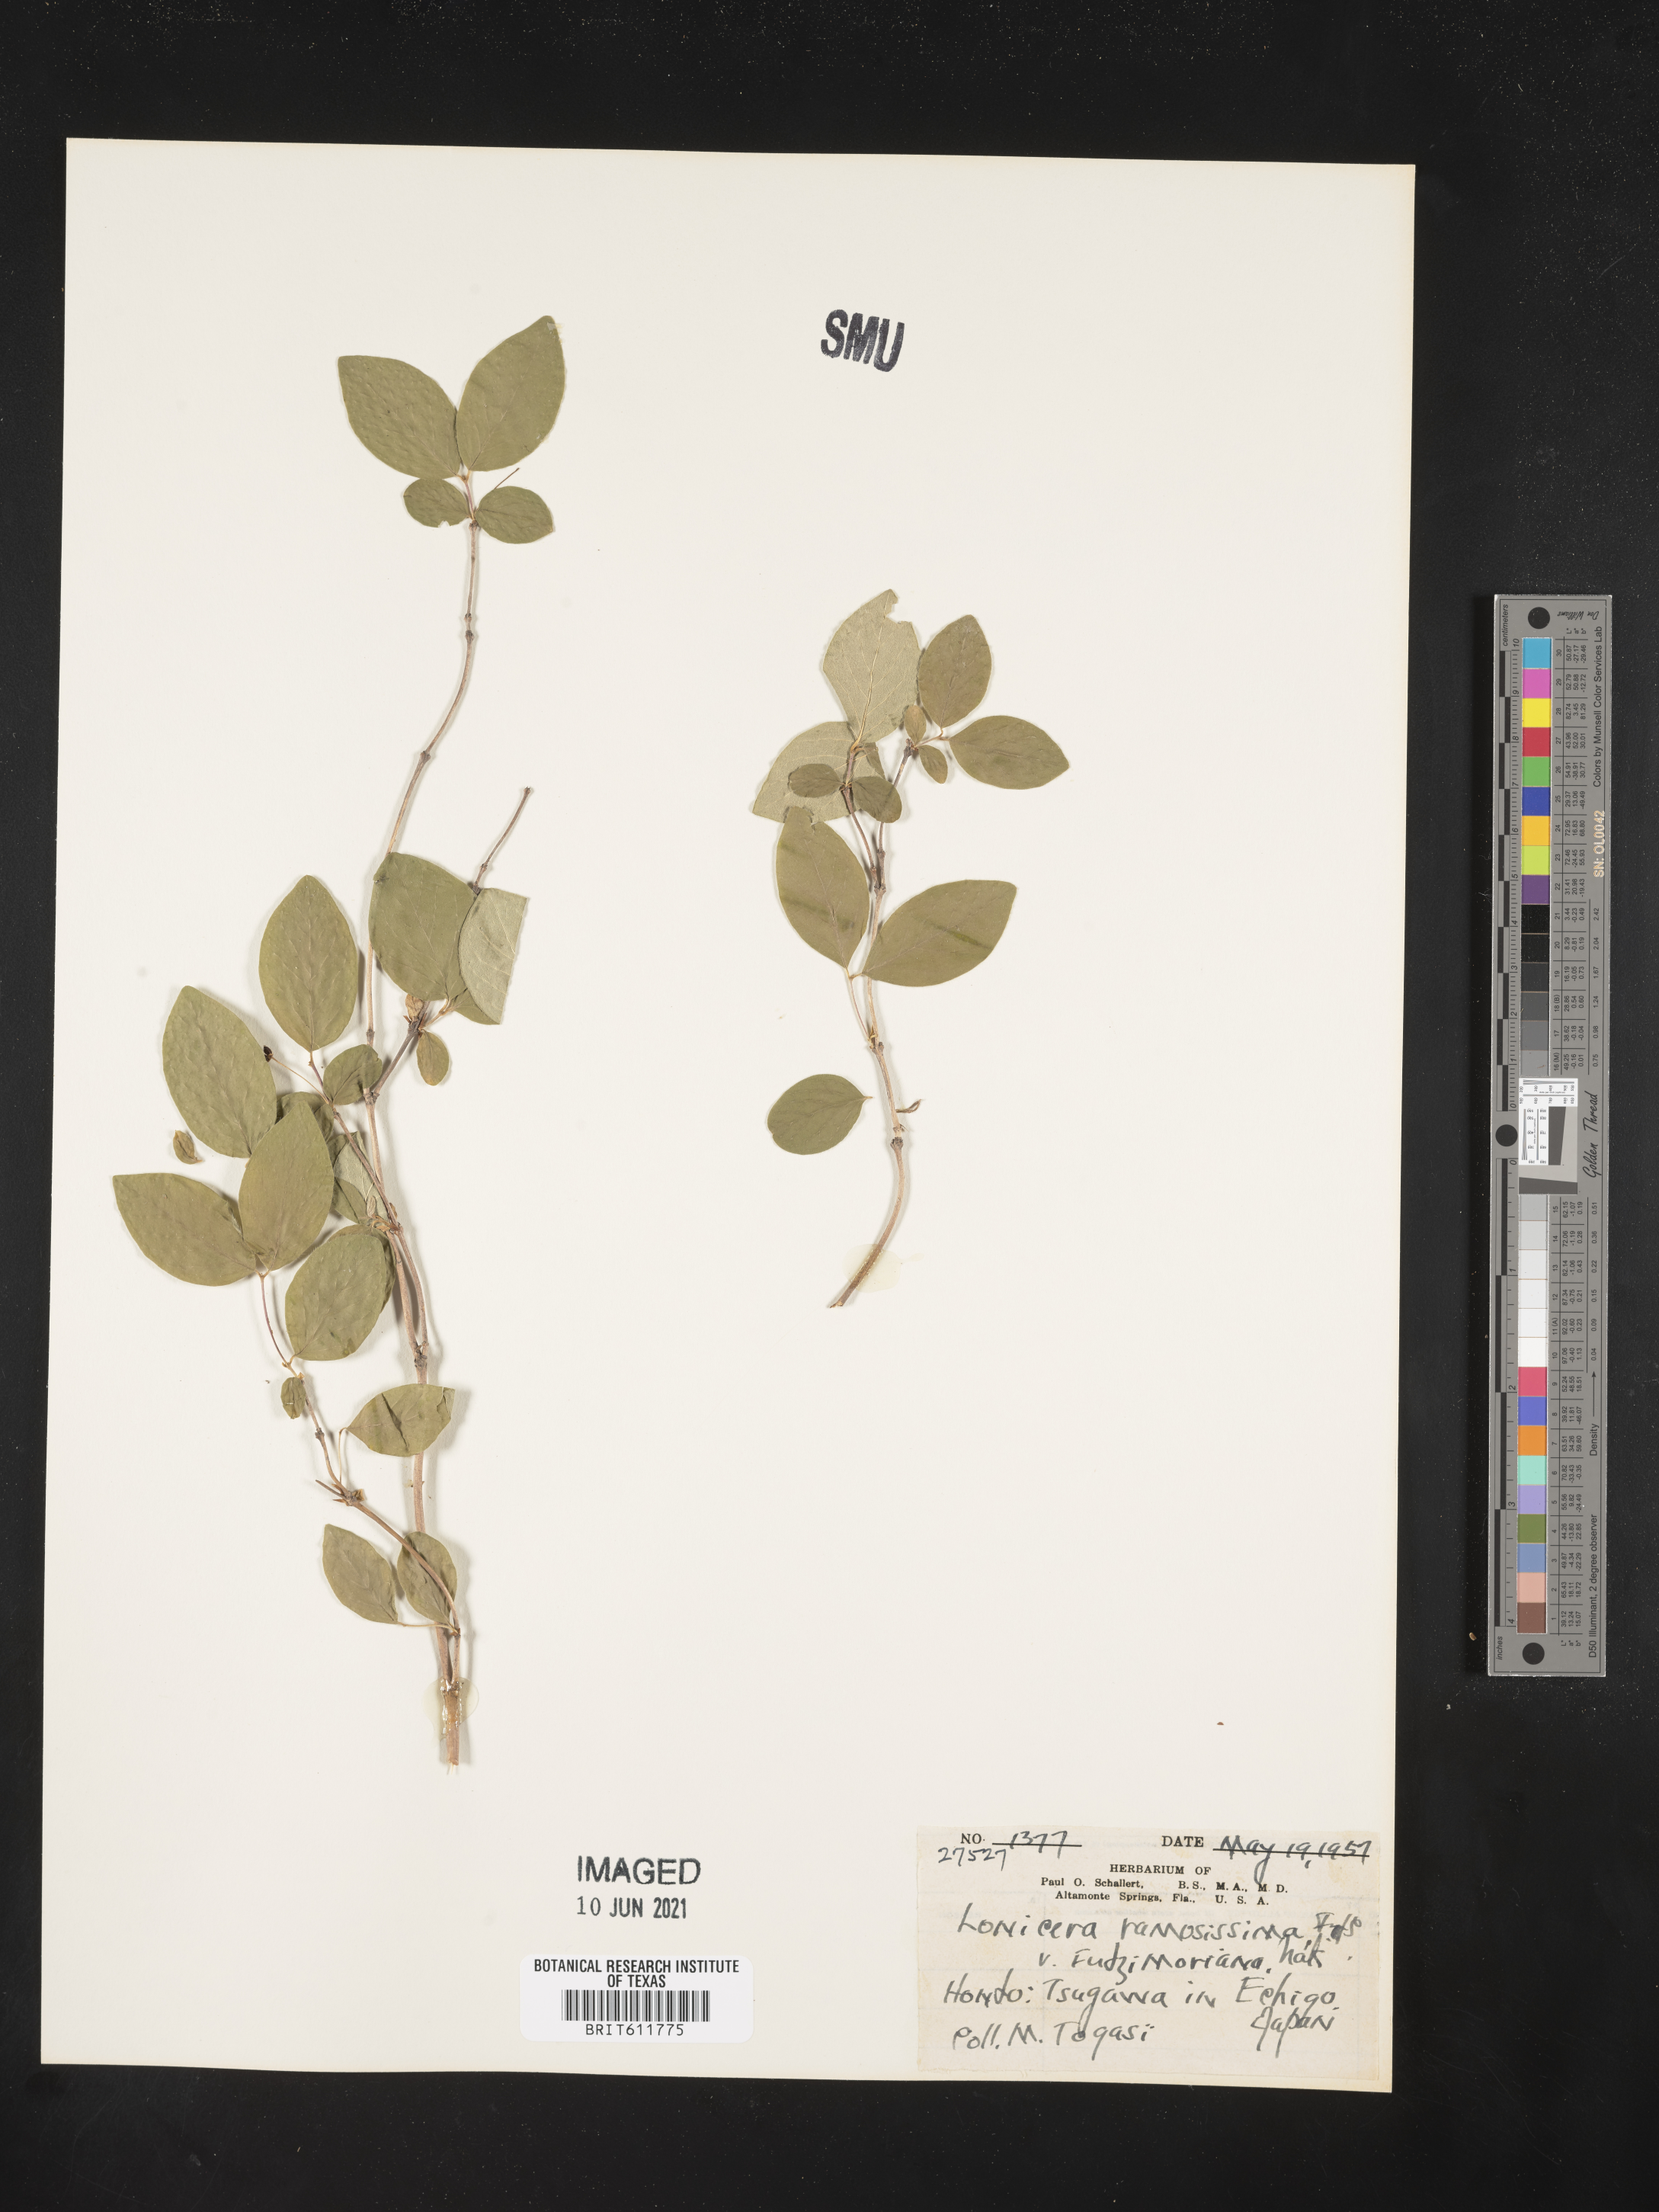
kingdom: Plantae
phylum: Tracheophyta
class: Magnoliopsida
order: Dipsacales
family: Caprifoliaceae
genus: Lonicera
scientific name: Lonicera ramosissima
